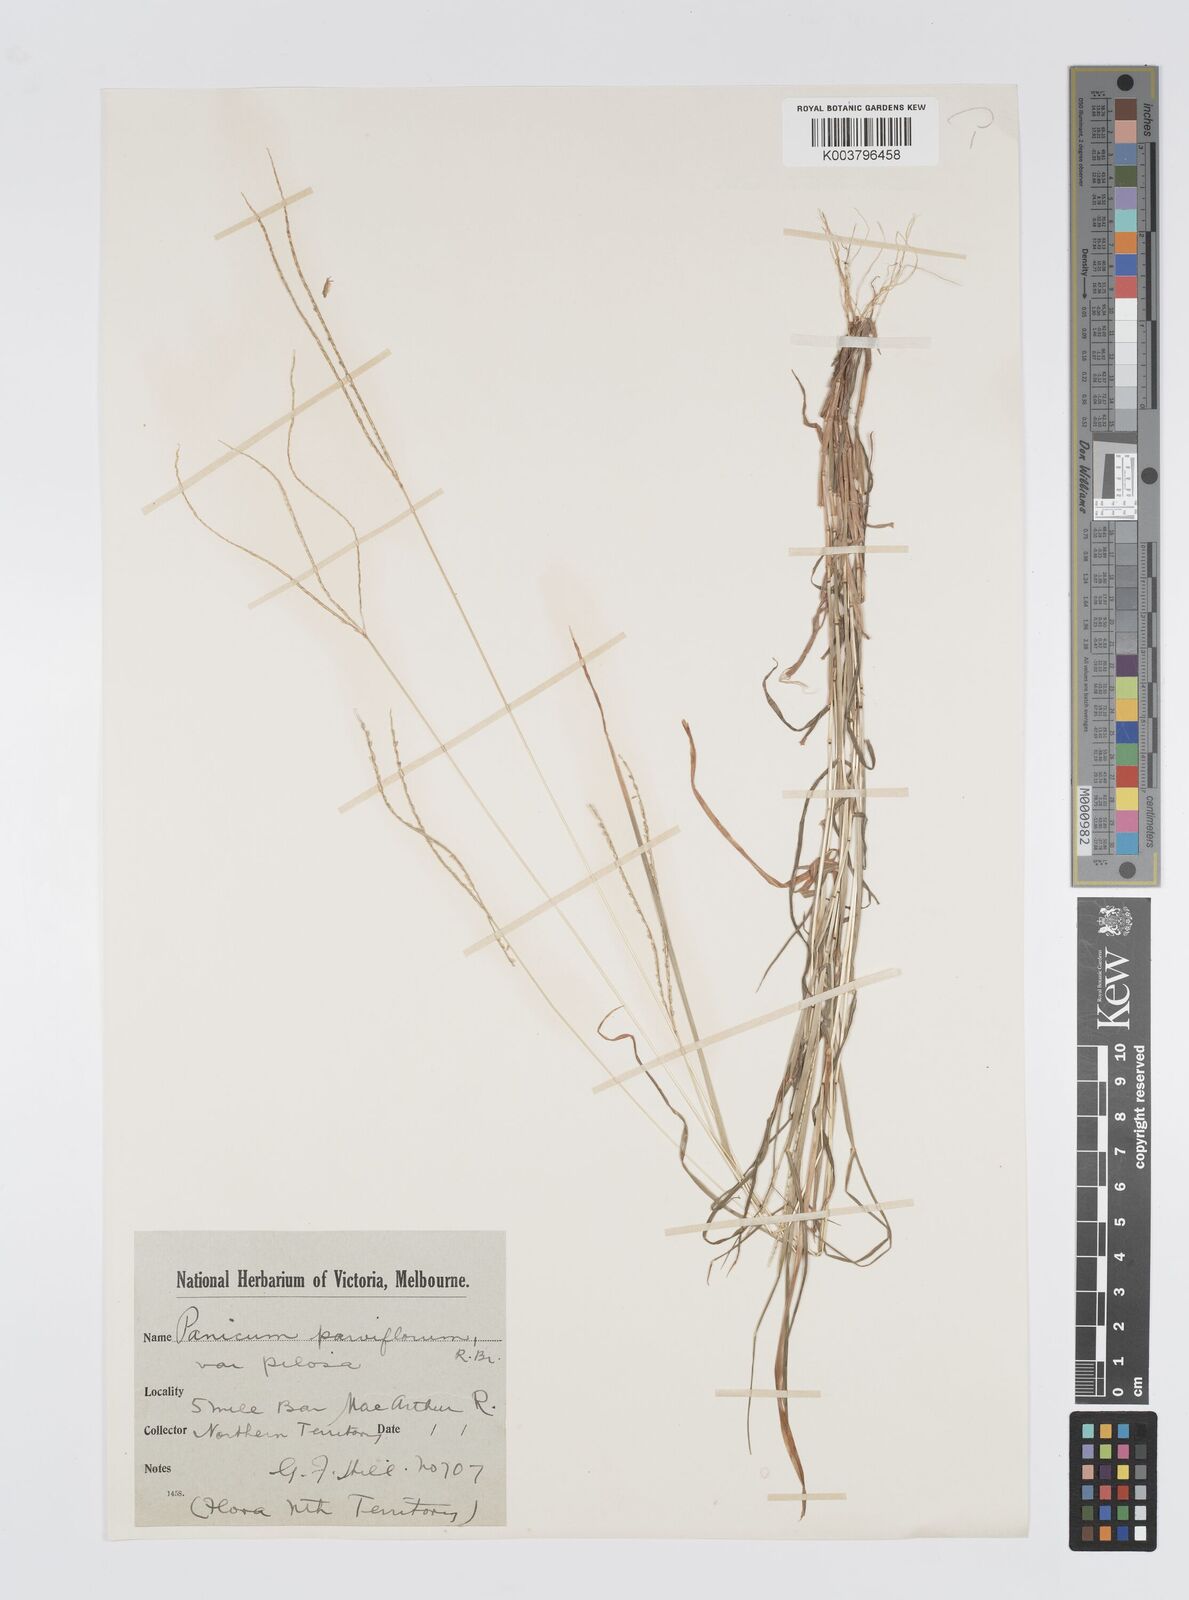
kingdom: Plantae
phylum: Tracheophyta
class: Liliopsida
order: Poales
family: Poaceae
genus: Digitaria
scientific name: Digitaria heterantha
